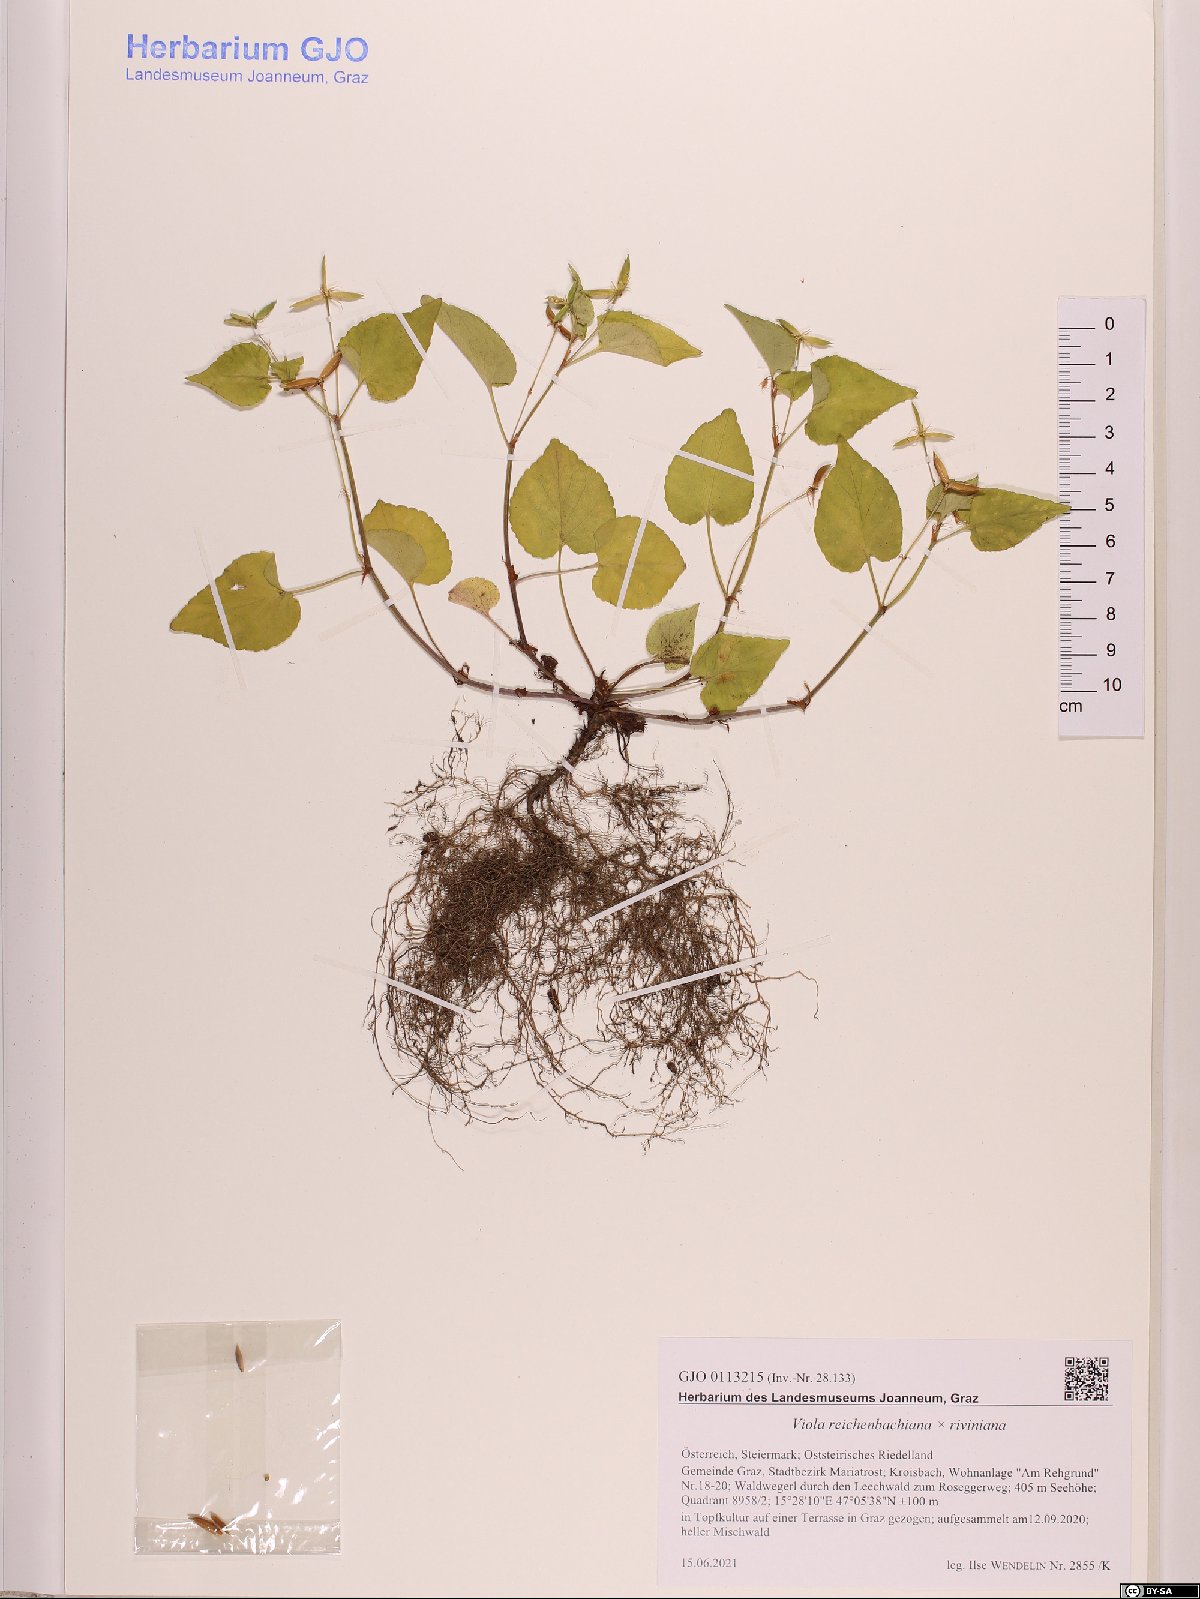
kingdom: Plantae
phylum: Tracheophyta
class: Magnoliopsida
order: Malpighiales
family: Violaceae
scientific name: Violaceae
